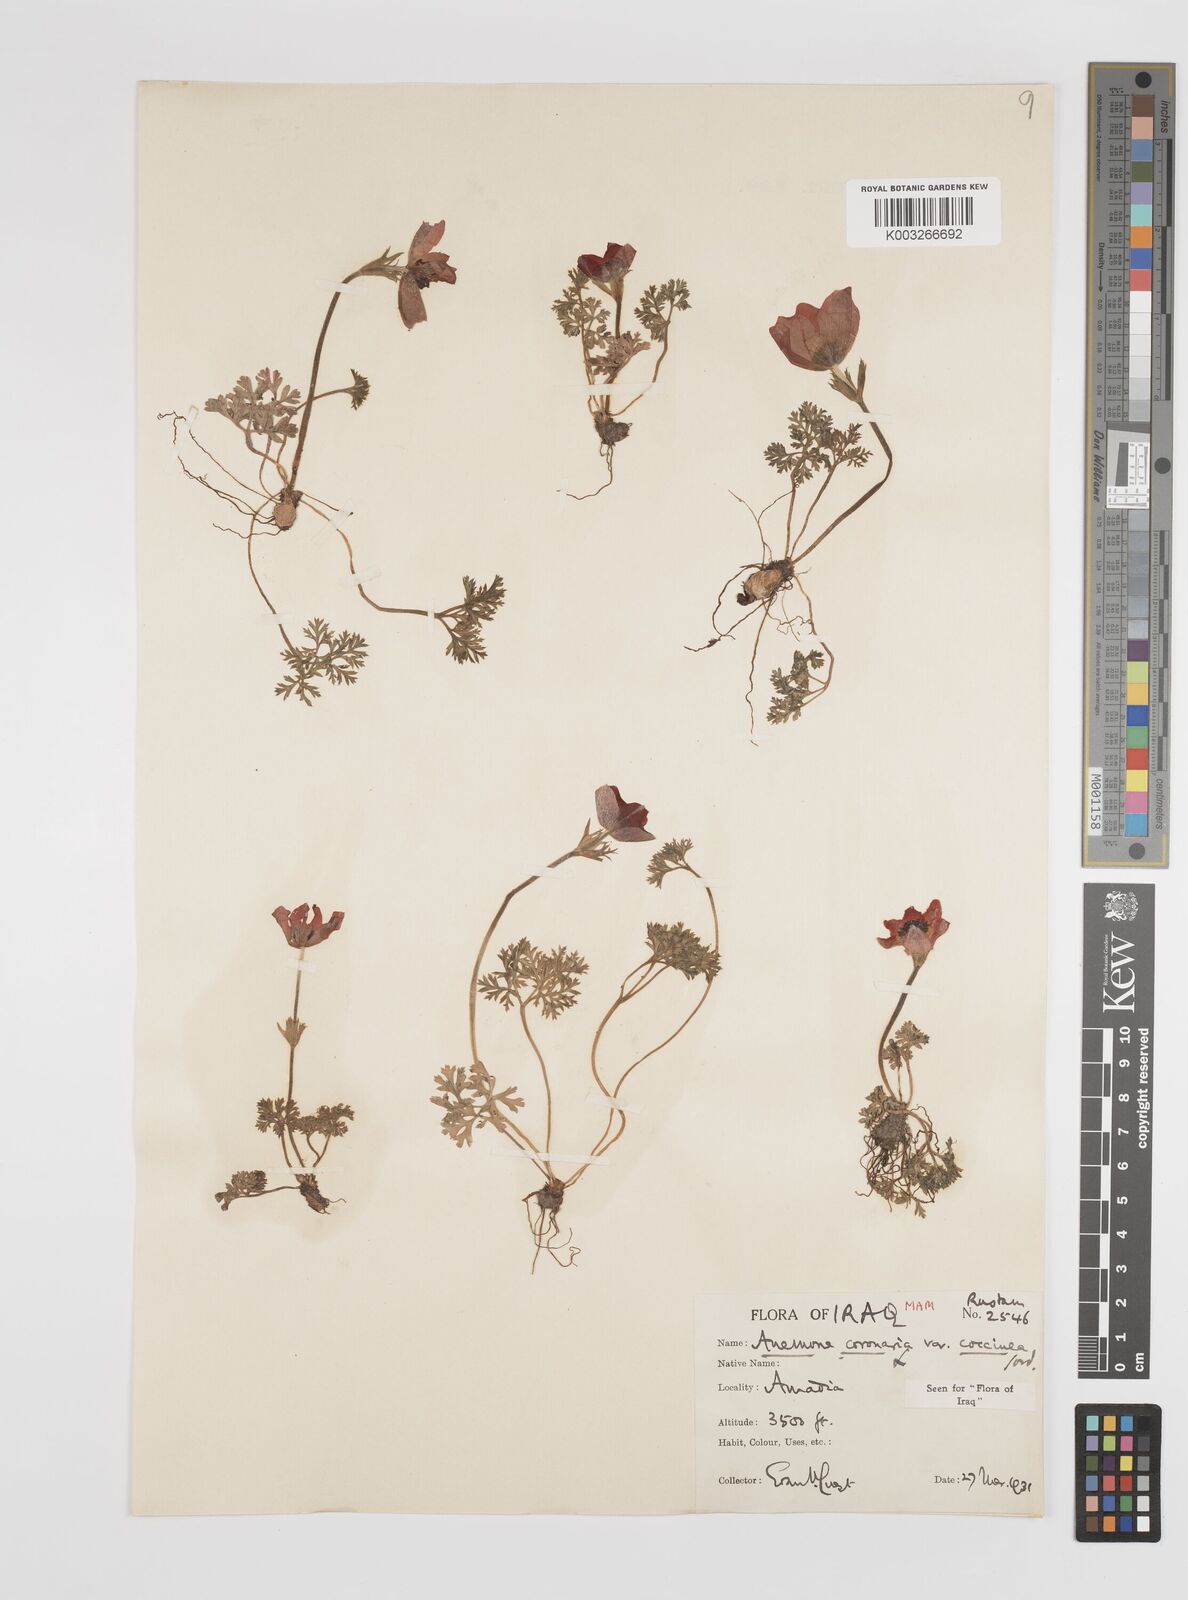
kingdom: Plantae
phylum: Tracheophyta
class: Magnoliopsida
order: Ranunculales
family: Ranunculaceae
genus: Anemone
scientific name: Anemone coronaria
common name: Poppy anemone
